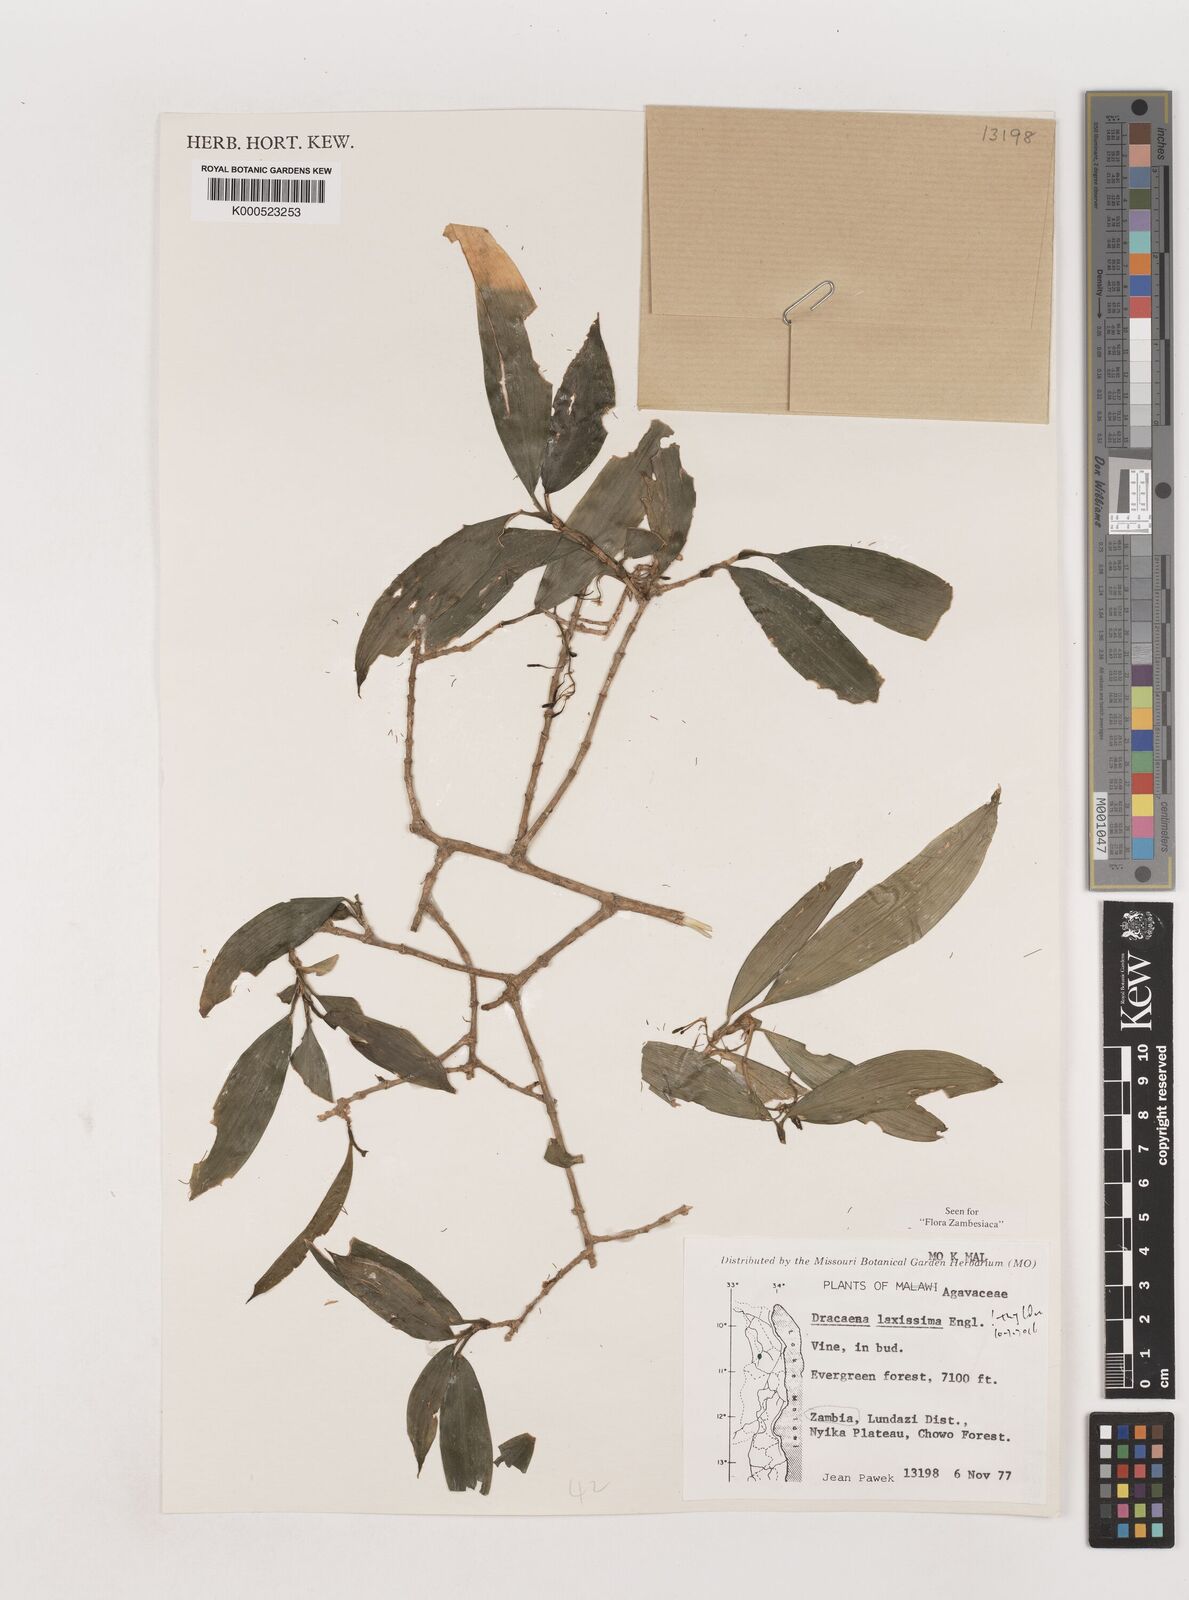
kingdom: Plantae
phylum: Tracheophyta
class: Liliopsida
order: Asparagales
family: Asparagaceae
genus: Dracaena
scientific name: Dracaena laxissima
